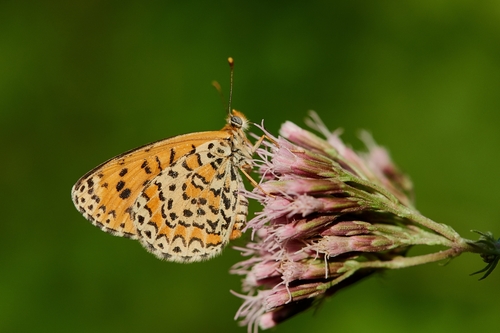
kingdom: Animalia
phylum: Arthropoda
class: Insecta
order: Lepidoptera
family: Nymphalidae
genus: Melitaea
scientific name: Melitaea trivia
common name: Lesser spotted fritillary
